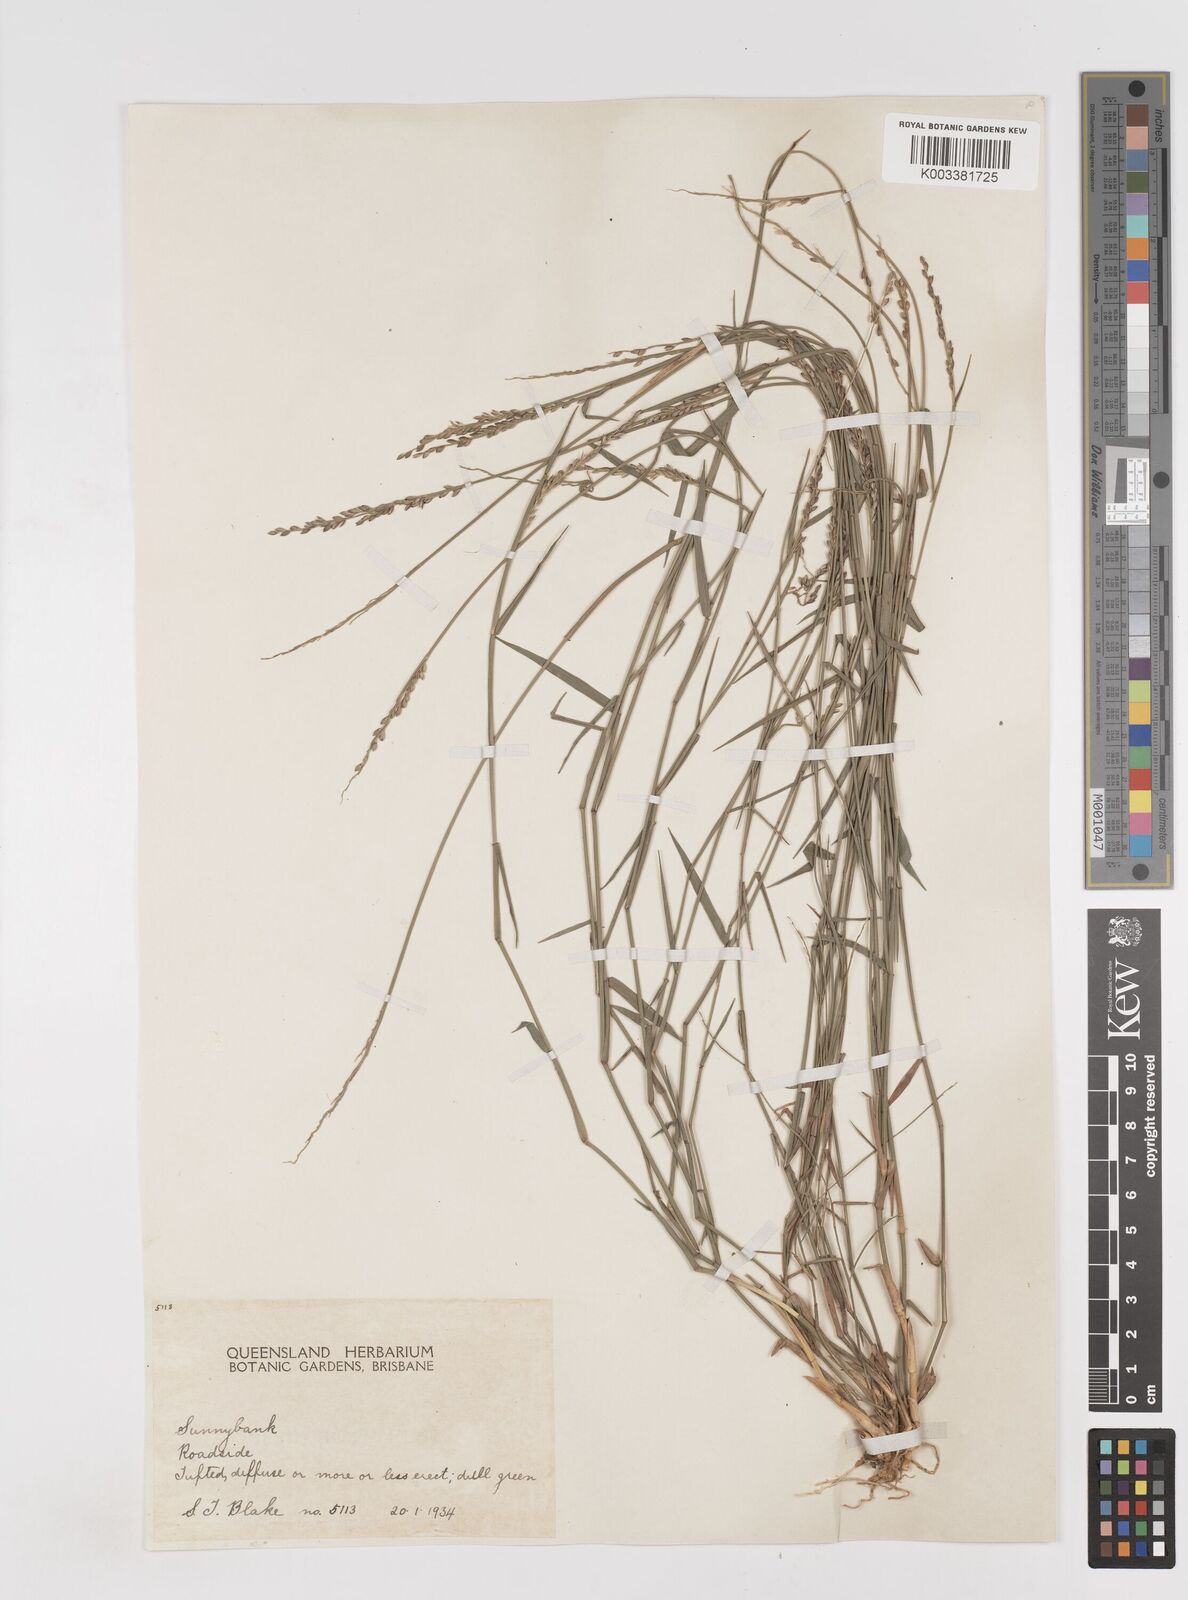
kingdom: Plantae
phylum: Tracheophyta
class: Liliopsida
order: Poales
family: Poaceae
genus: Entolasia
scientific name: Entolasia stricta
